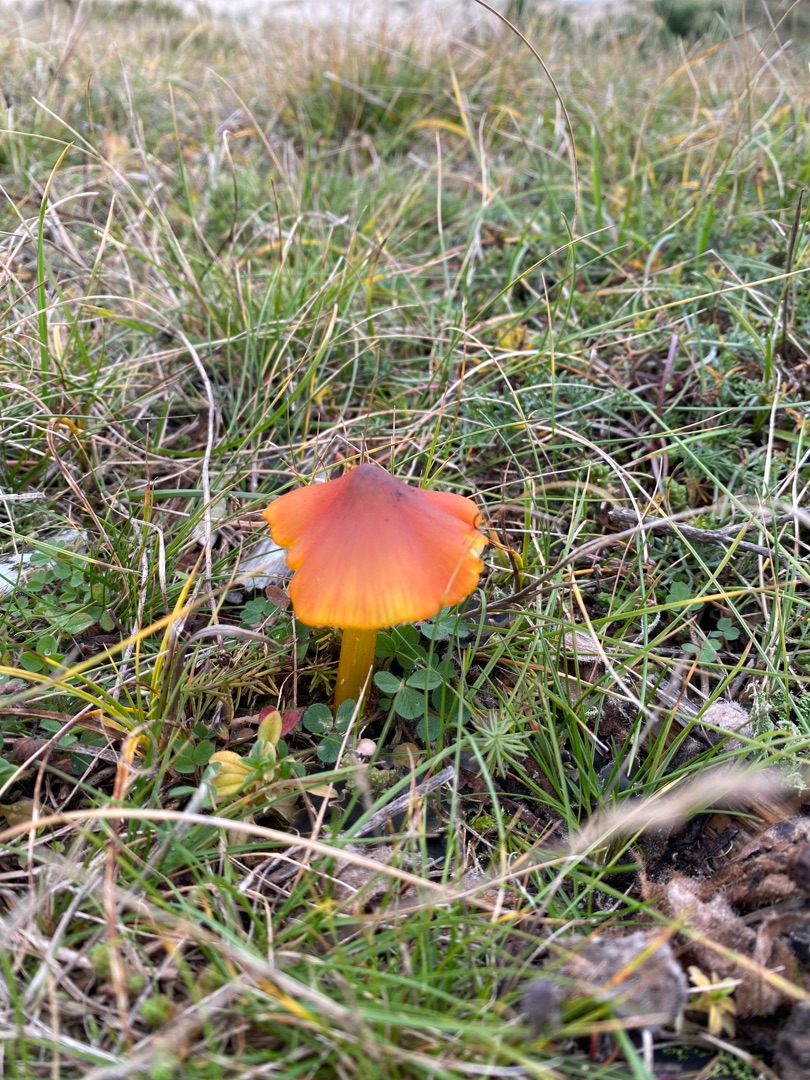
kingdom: Fungi
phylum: Basidiomycota
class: Agaricomycetes
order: Agaricales
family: Hygrophoraceae
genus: Hygrocybe
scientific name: Hygrocybe conica
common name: Kegle-vokshat
